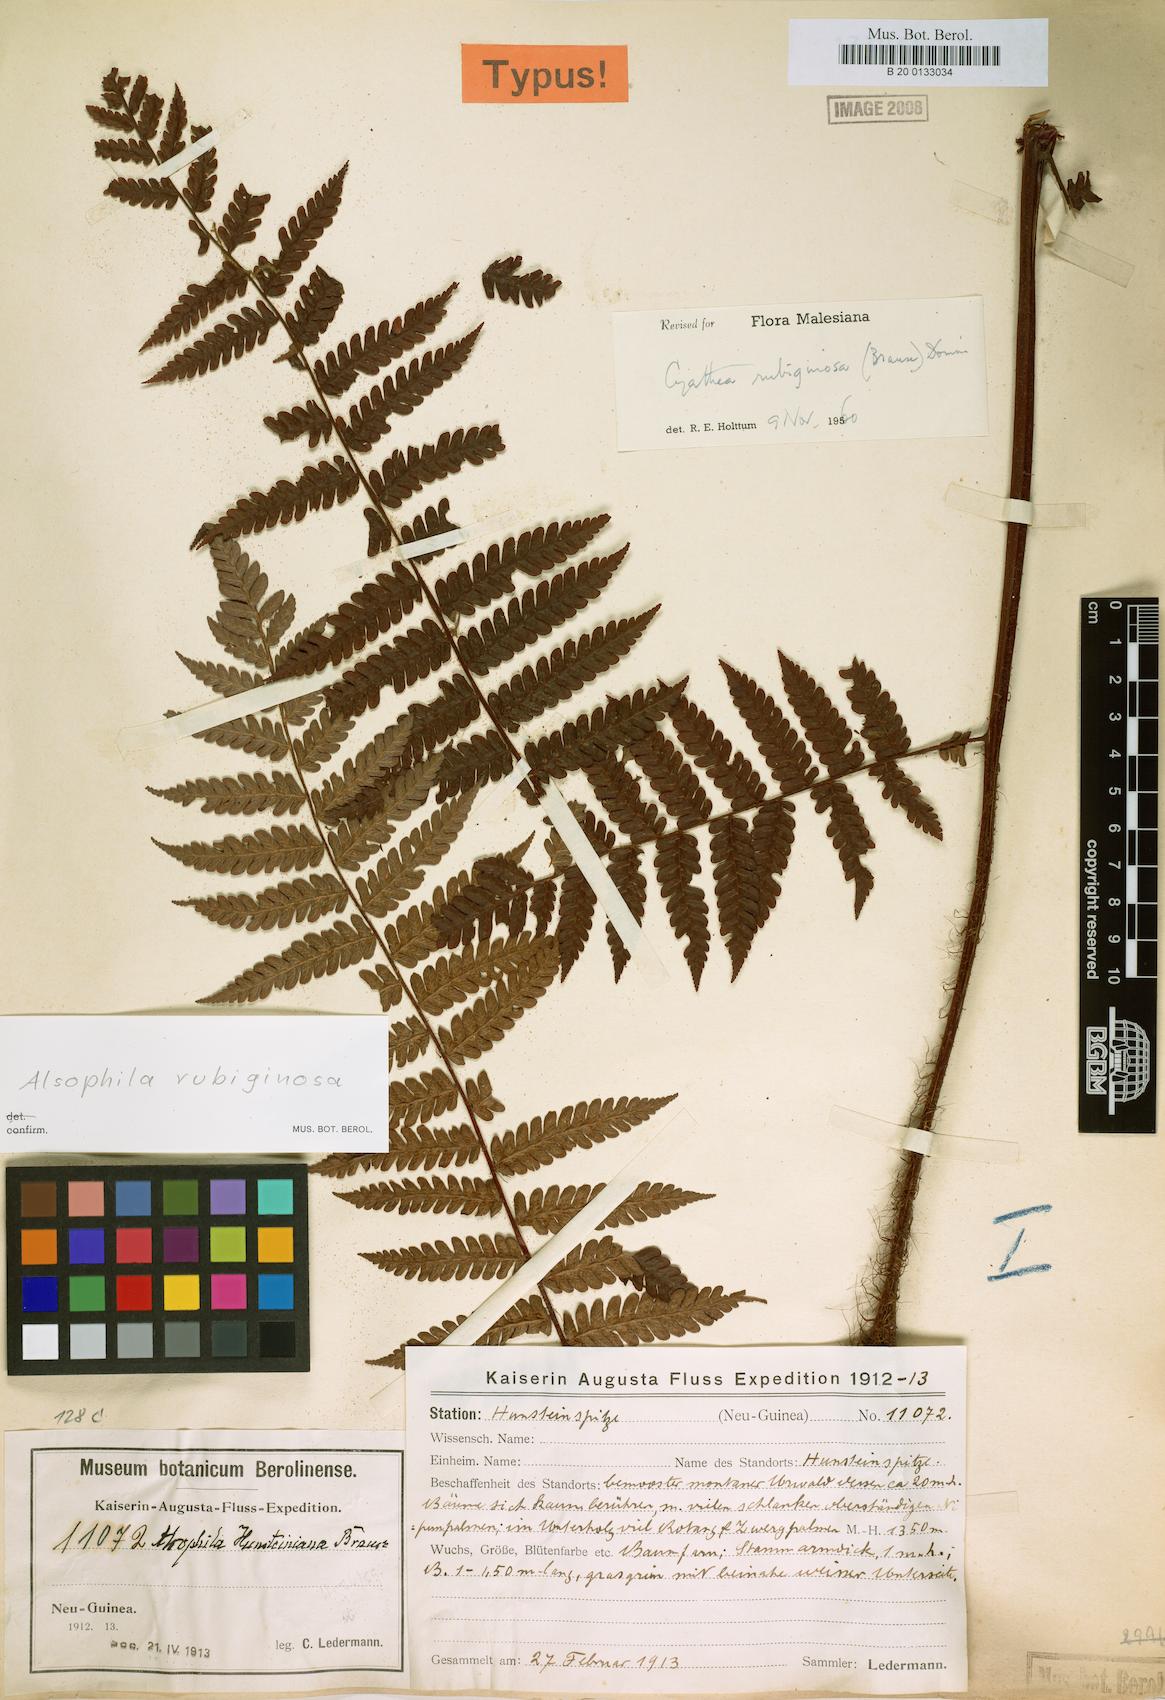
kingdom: Plantae
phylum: Tracheophyta
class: Polypodiopsida
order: Cyatheales
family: Cyatheaceae
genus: Alsophila
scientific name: Alsophila rubiginosa
